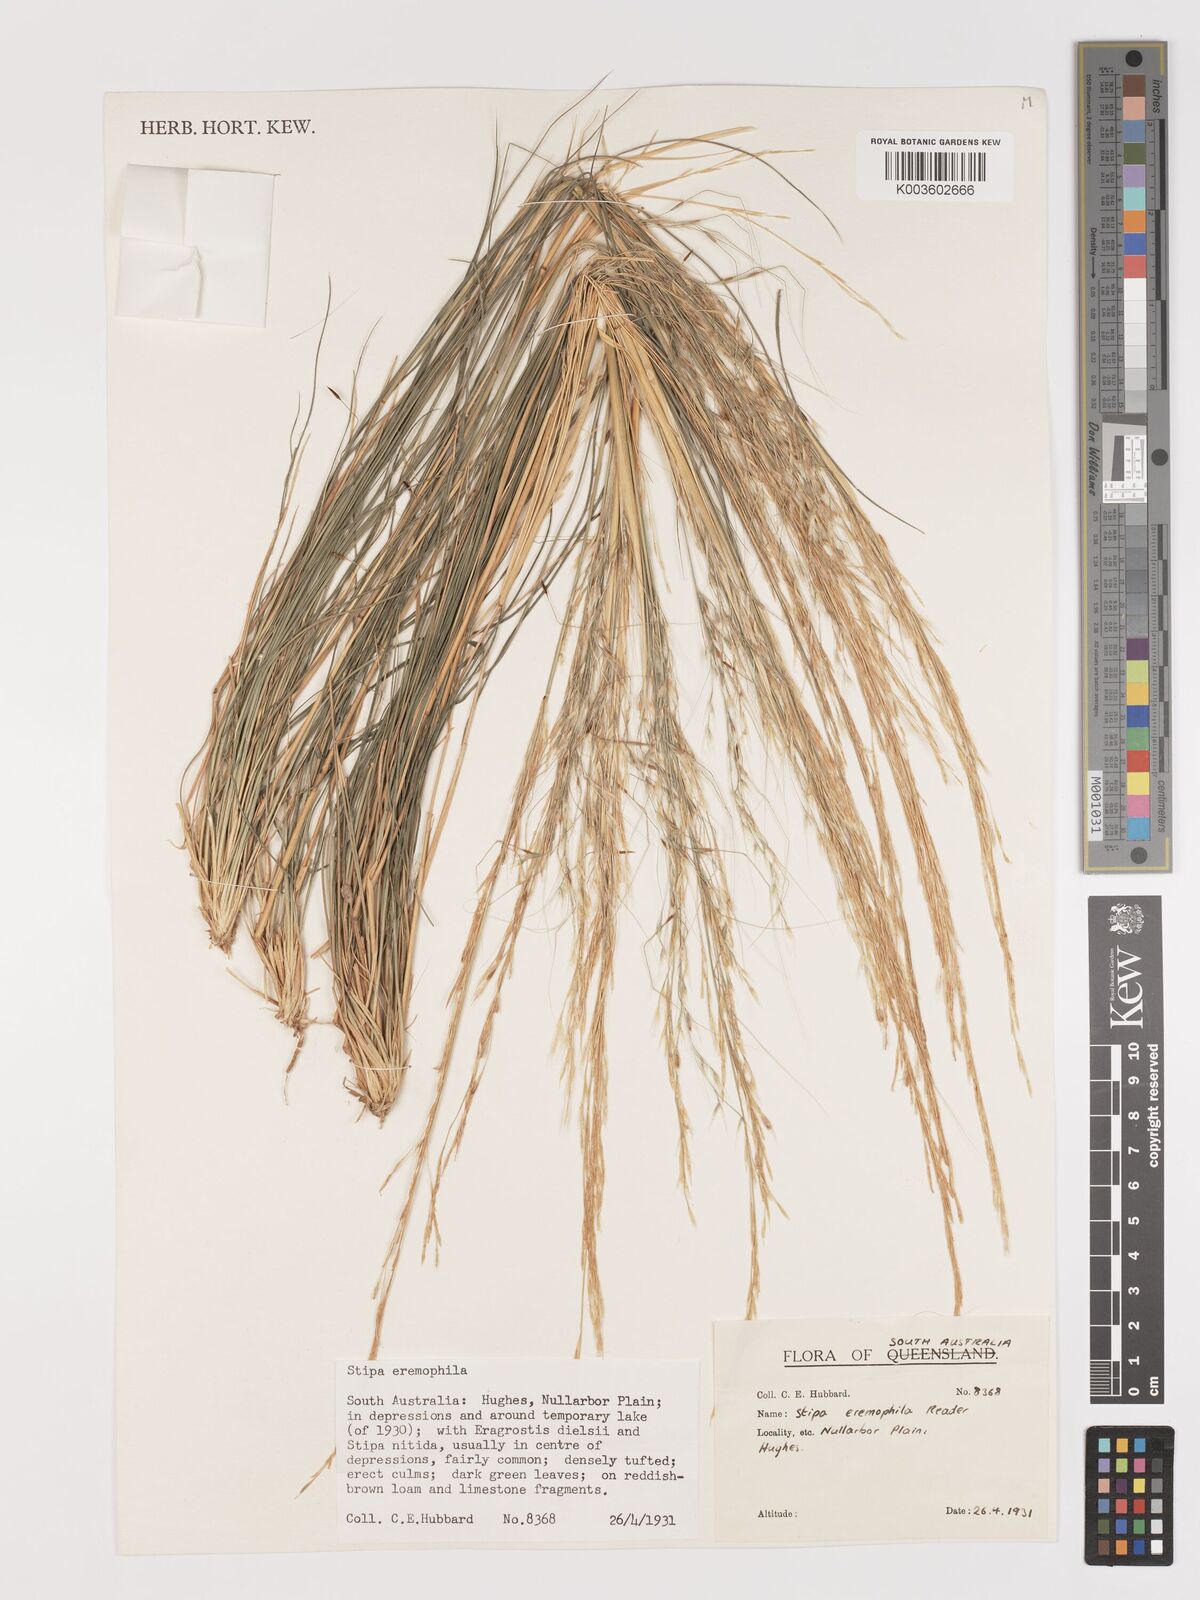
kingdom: Plantae
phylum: Tracheophyta
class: Liliopsida
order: Poales
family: Poaceae
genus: Austrostipa
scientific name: Austrostipa eremophila
